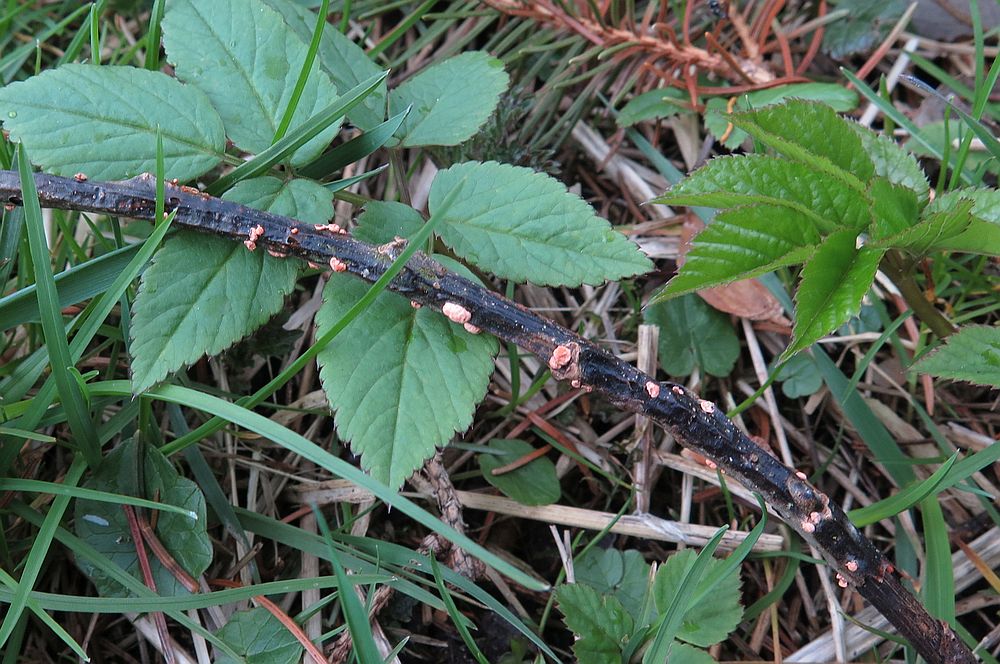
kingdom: Fungi
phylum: Ascomycota
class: Sordariomycetes
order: Hypocreales
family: Nectriaceae
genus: Nectria
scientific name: Nectria cinnabarina
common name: almindelig cinnobersvamp
